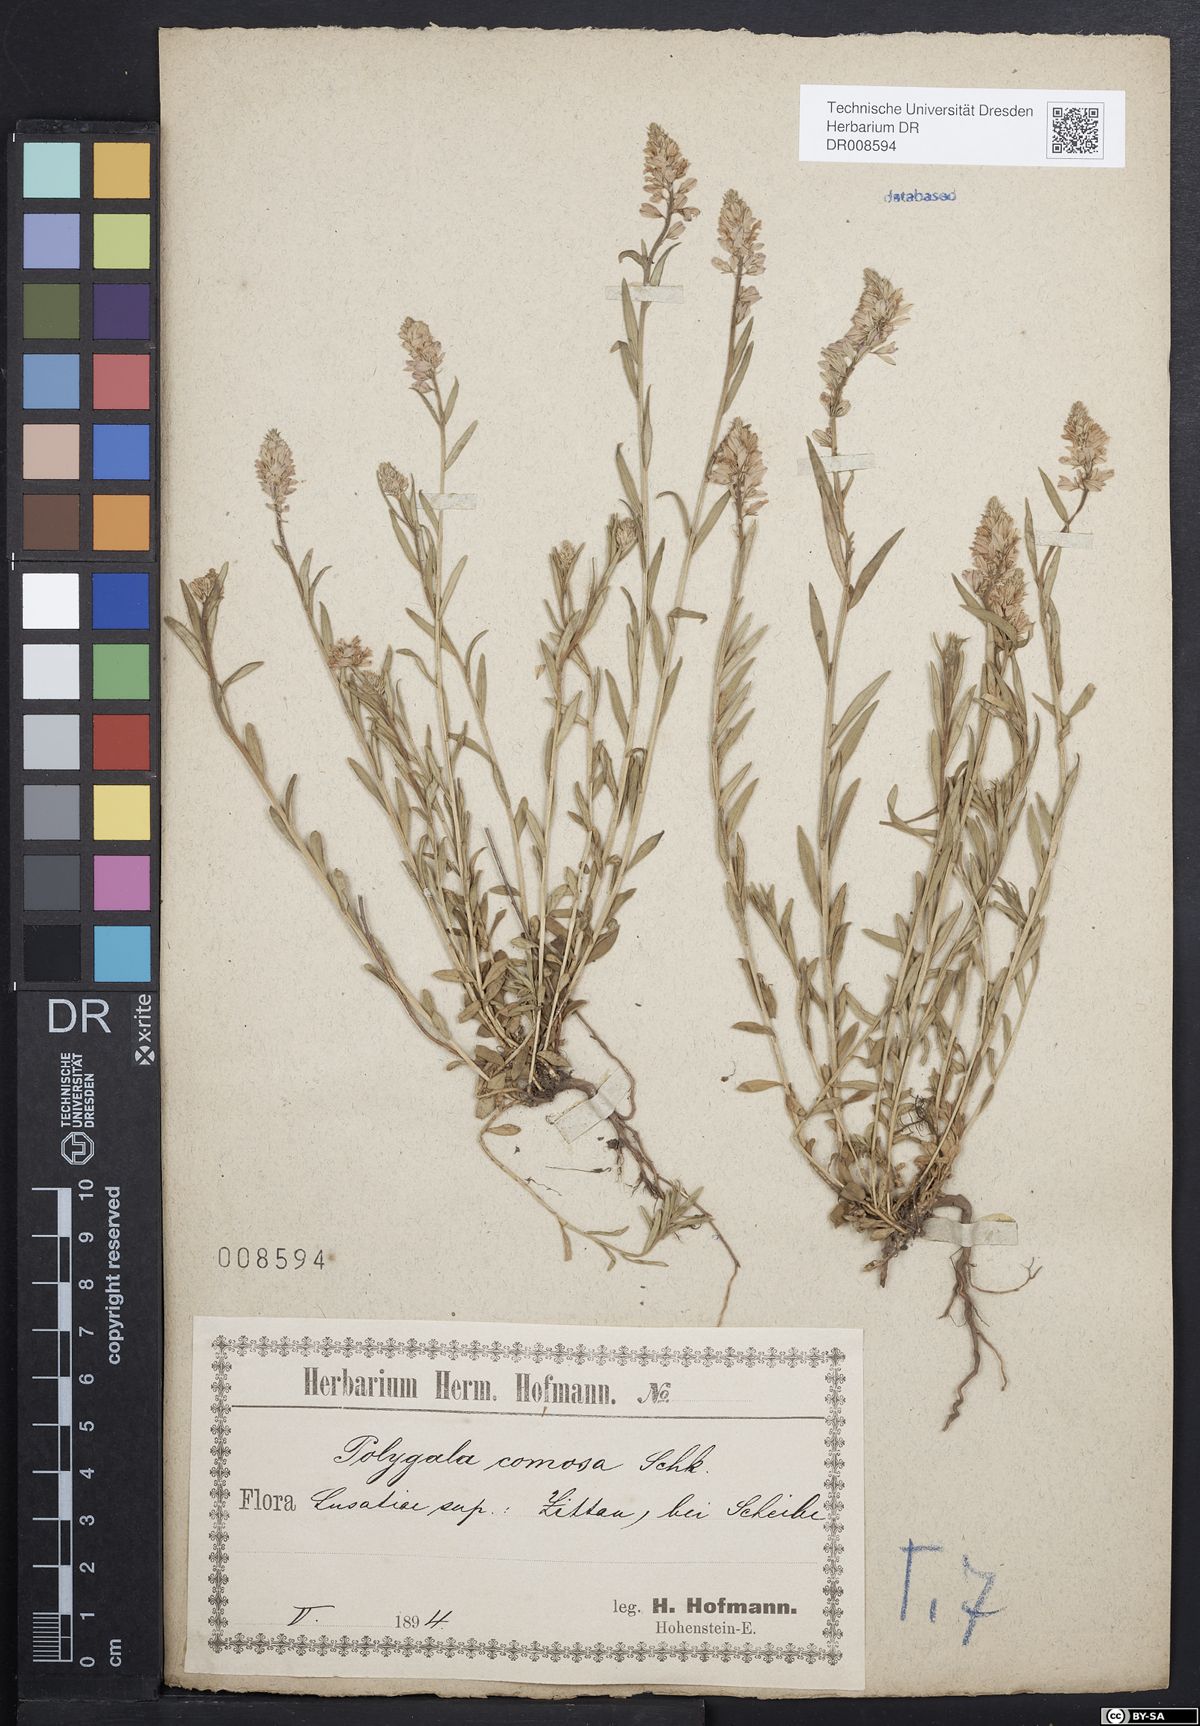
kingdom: Plantae
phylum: Tracheophyta
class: Magnoliopsida
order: Fabales
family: Polygalaceae
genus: Polygala
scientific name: Polygala comosa
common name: Tufted milkwort
